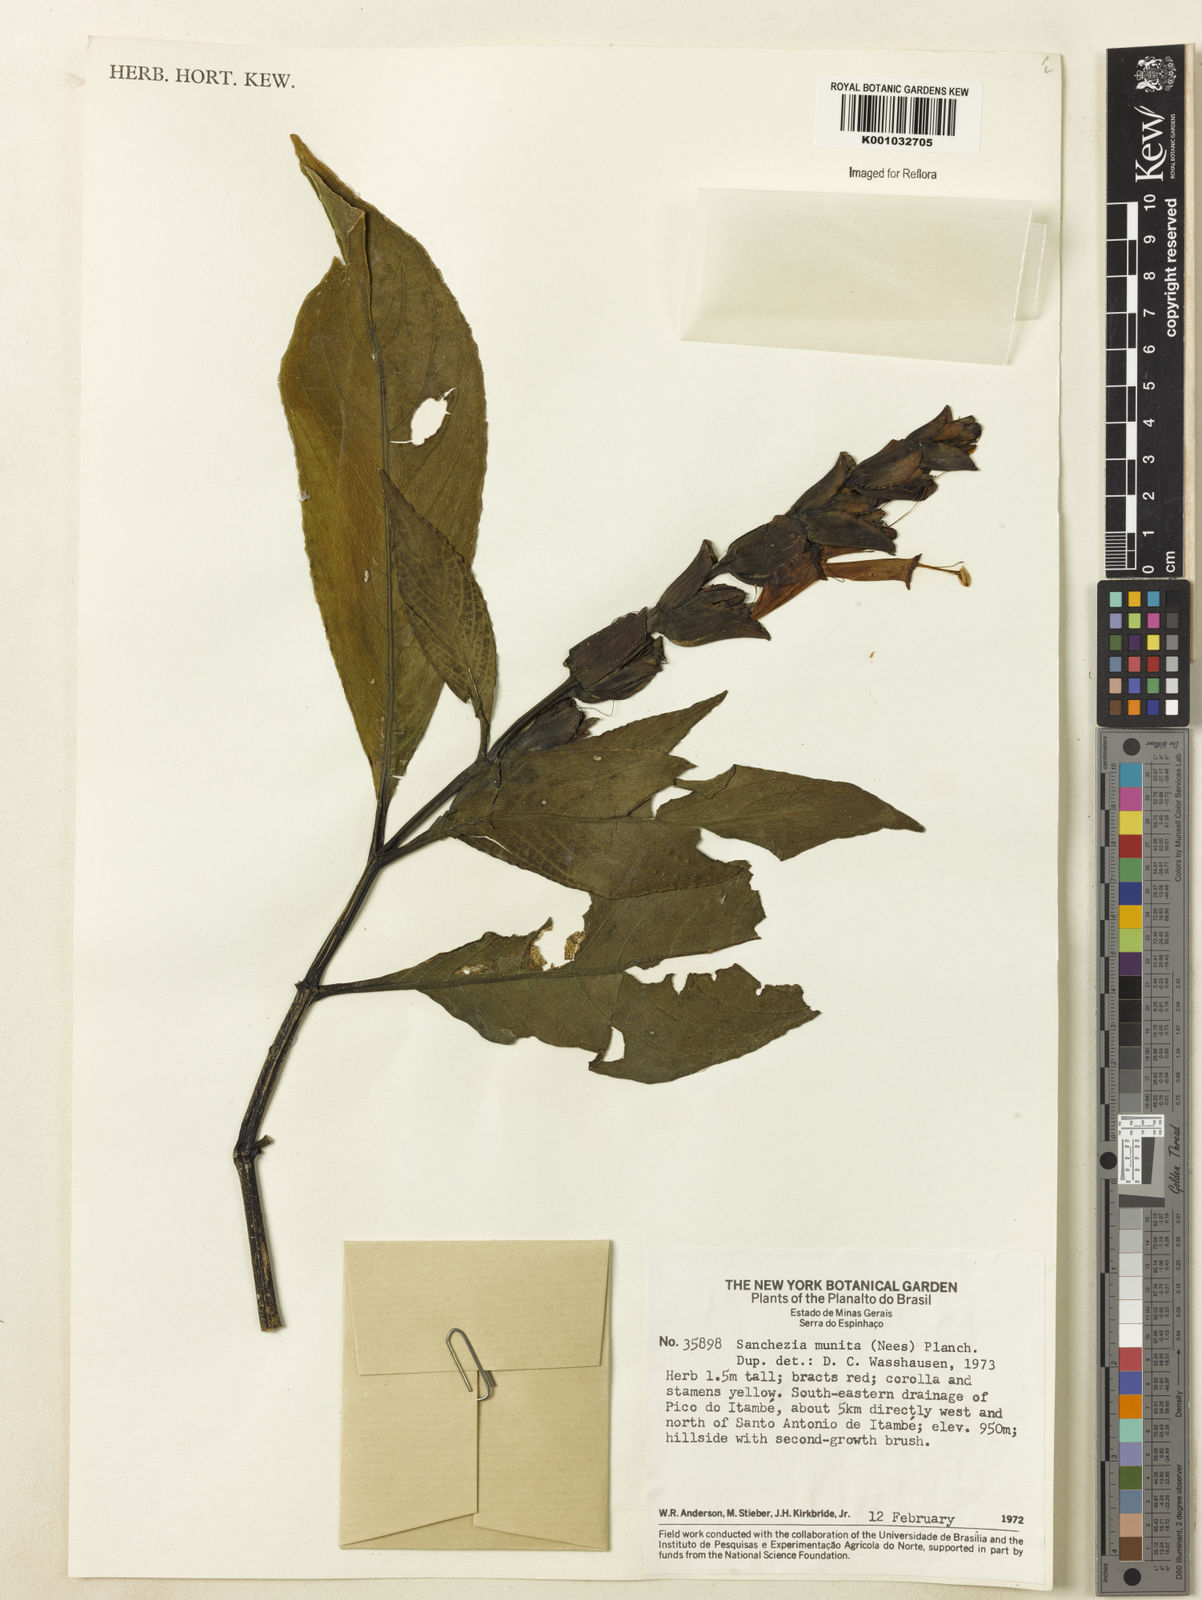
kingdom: Plantae
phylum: Tracheophyta
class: Magnoliopsida
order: Lamiales
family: Acanthaceae
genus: Sanchezia
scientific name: Sanchezia munita
